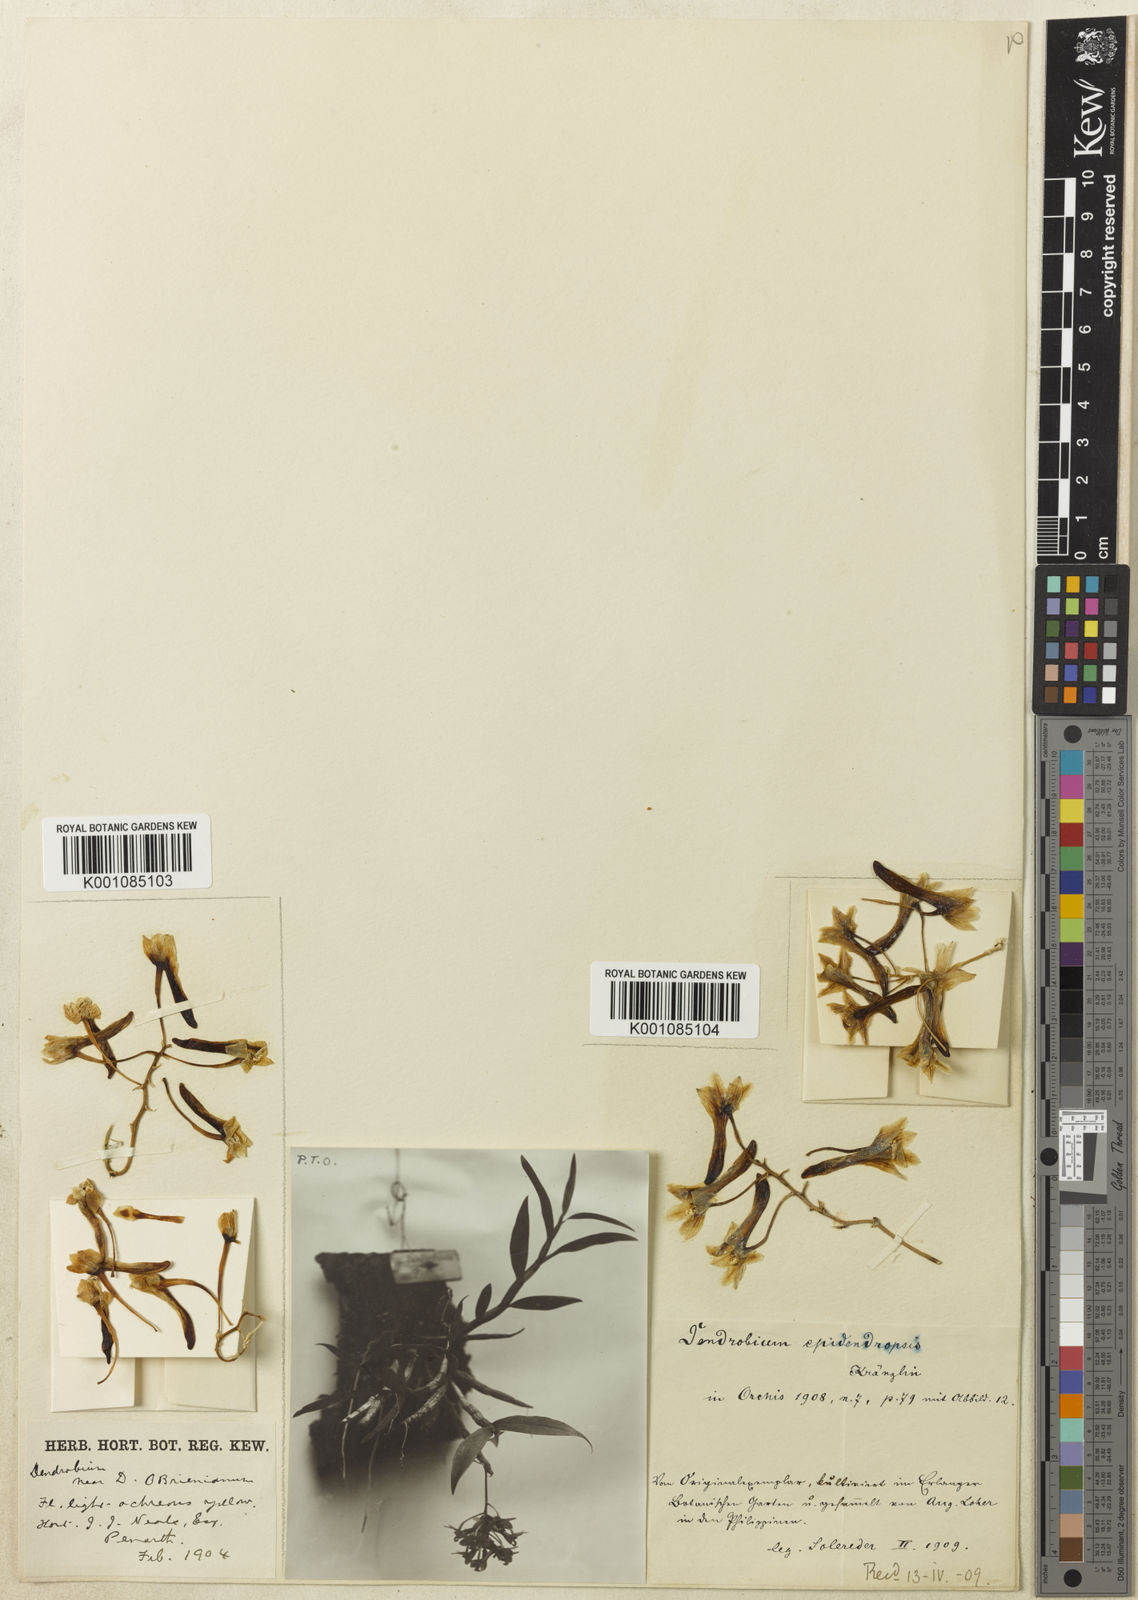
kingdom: Plantae
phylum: Tracheophyta
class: Liliopsida
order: Asparagales
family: Orchidaceae
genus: Dendrobium
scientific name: Dendrobium ionopus
